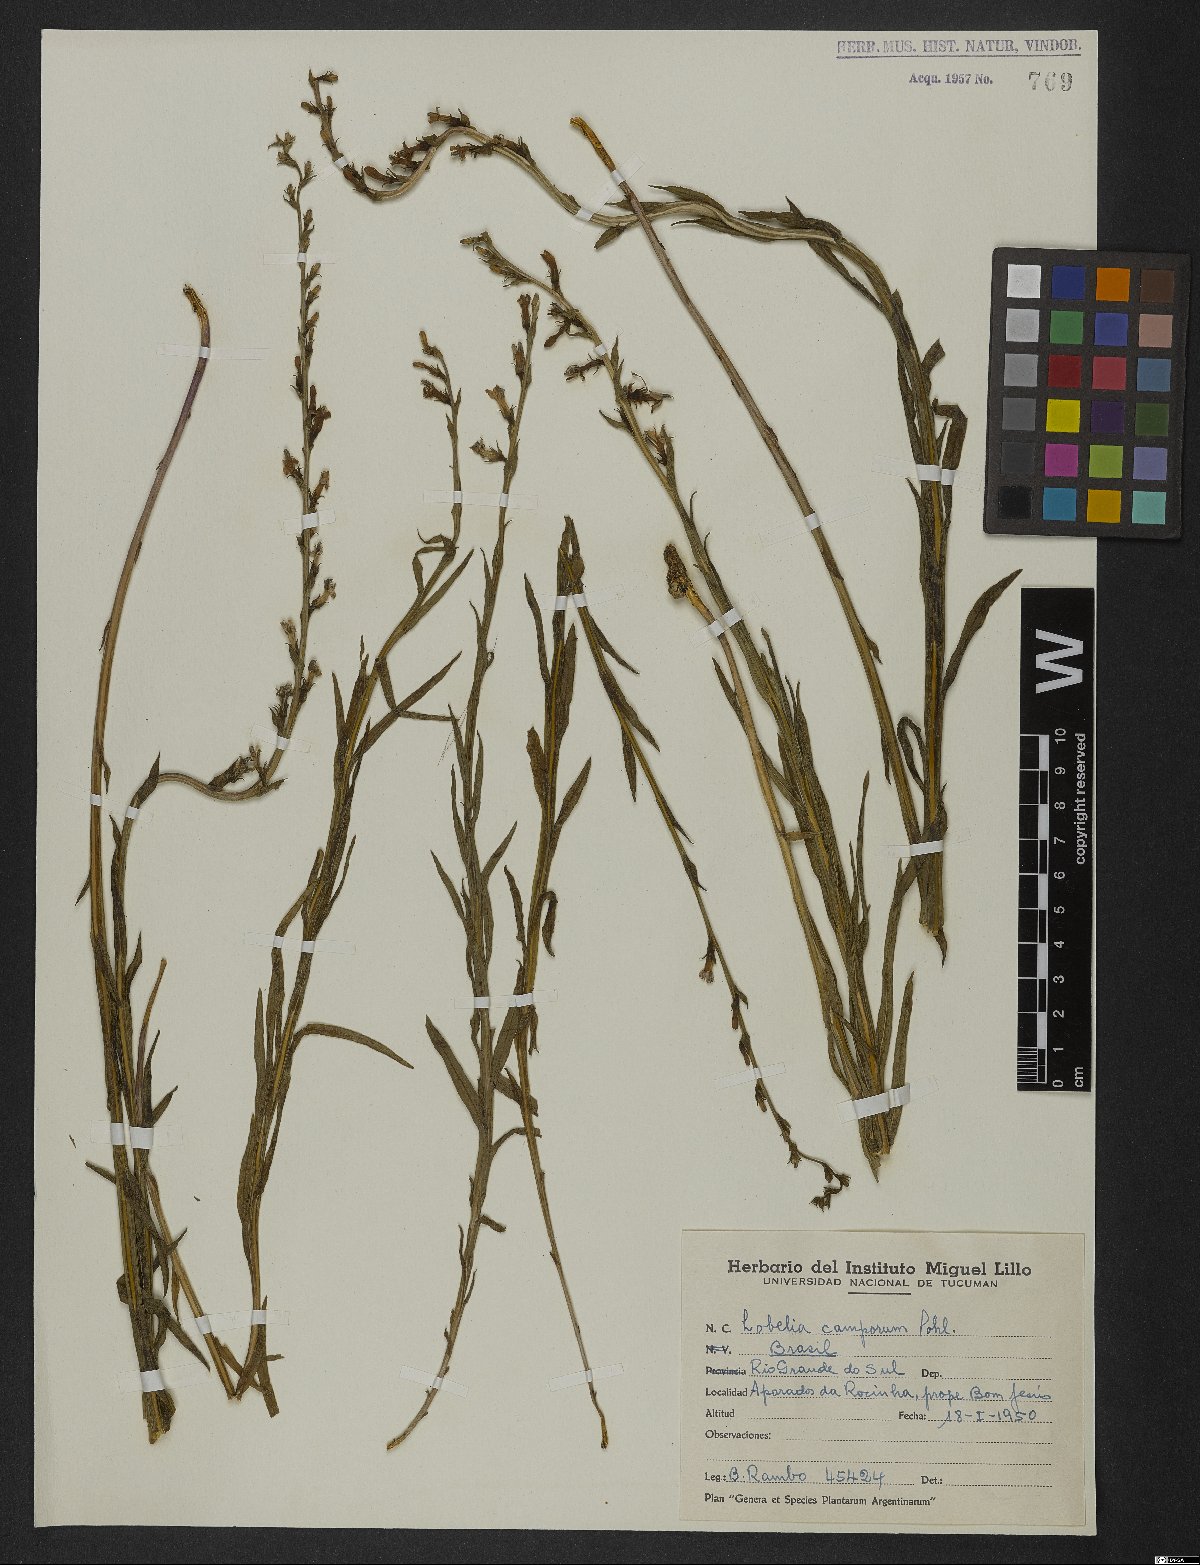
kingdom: Plantae
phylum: Tracheophyta
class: Magnoliopsida
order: Asterales
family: Campanulaceae
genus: Lobelia
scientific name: Lobelia camporum
